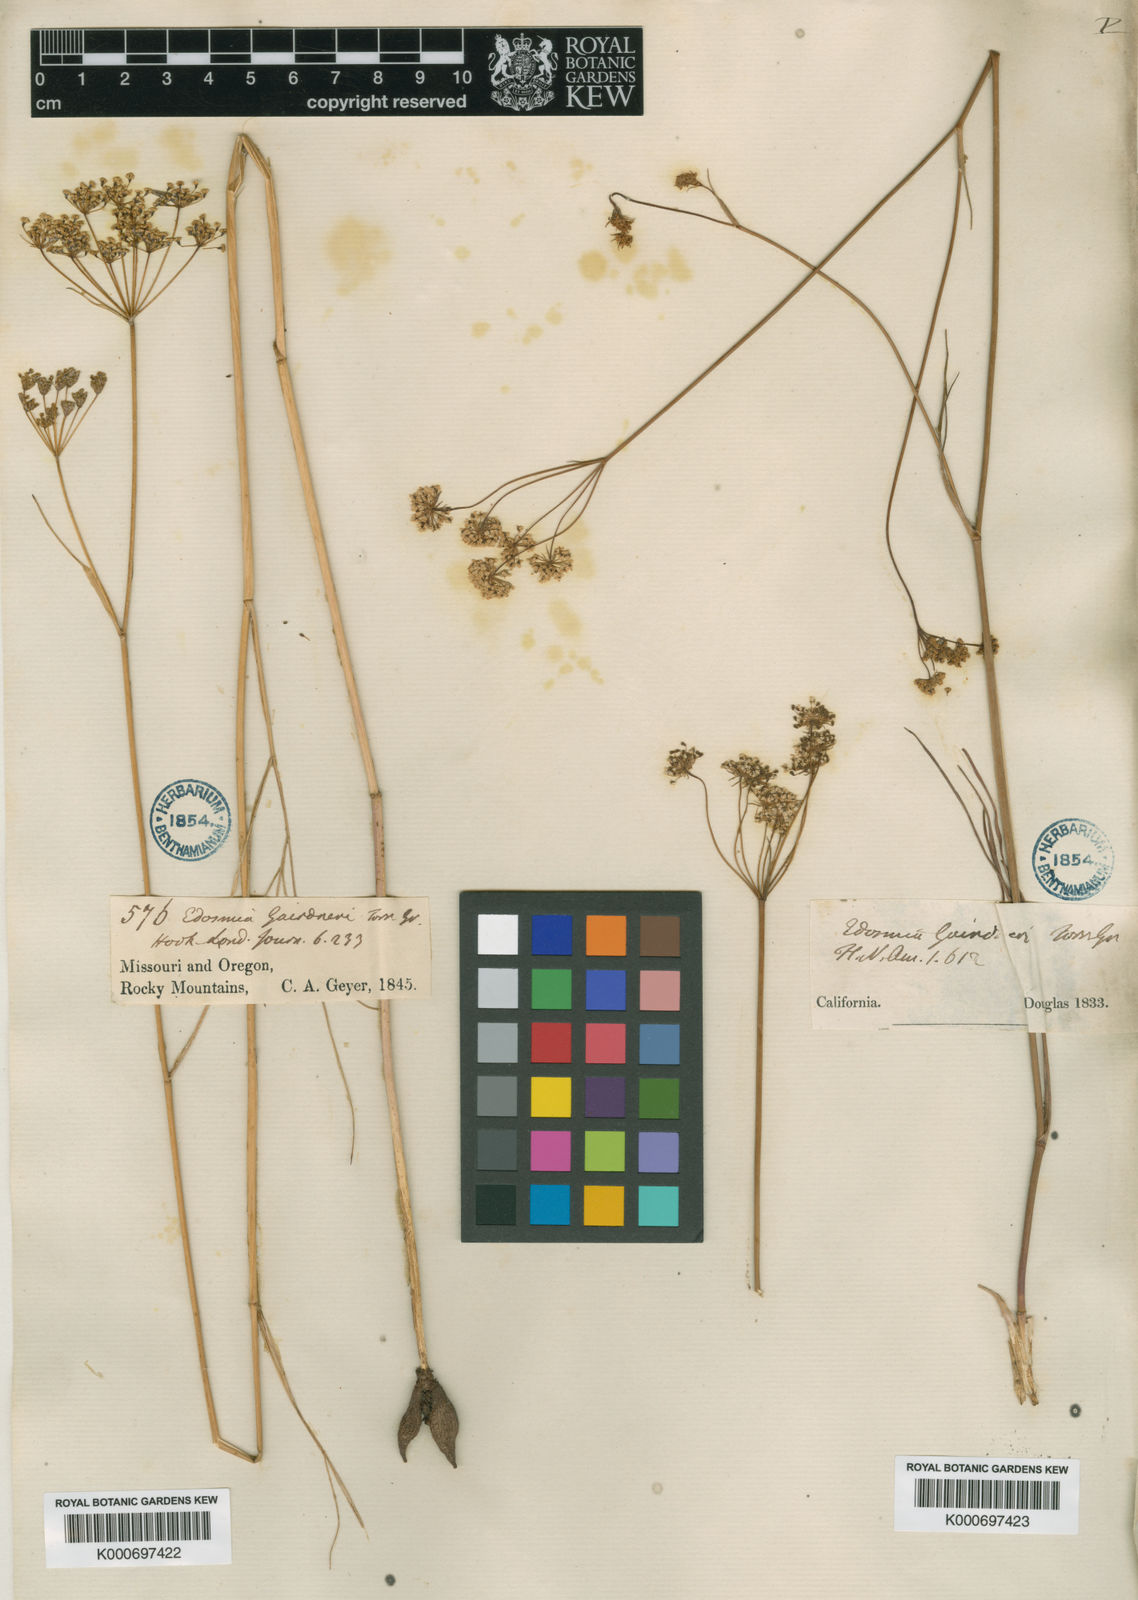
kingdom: Plantae
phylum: Tracheophyta
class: Magnoliopsida
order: Apiales
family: Apiaceae
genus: Perideridia
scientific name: Perideridia gairdneri
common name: False caraway
